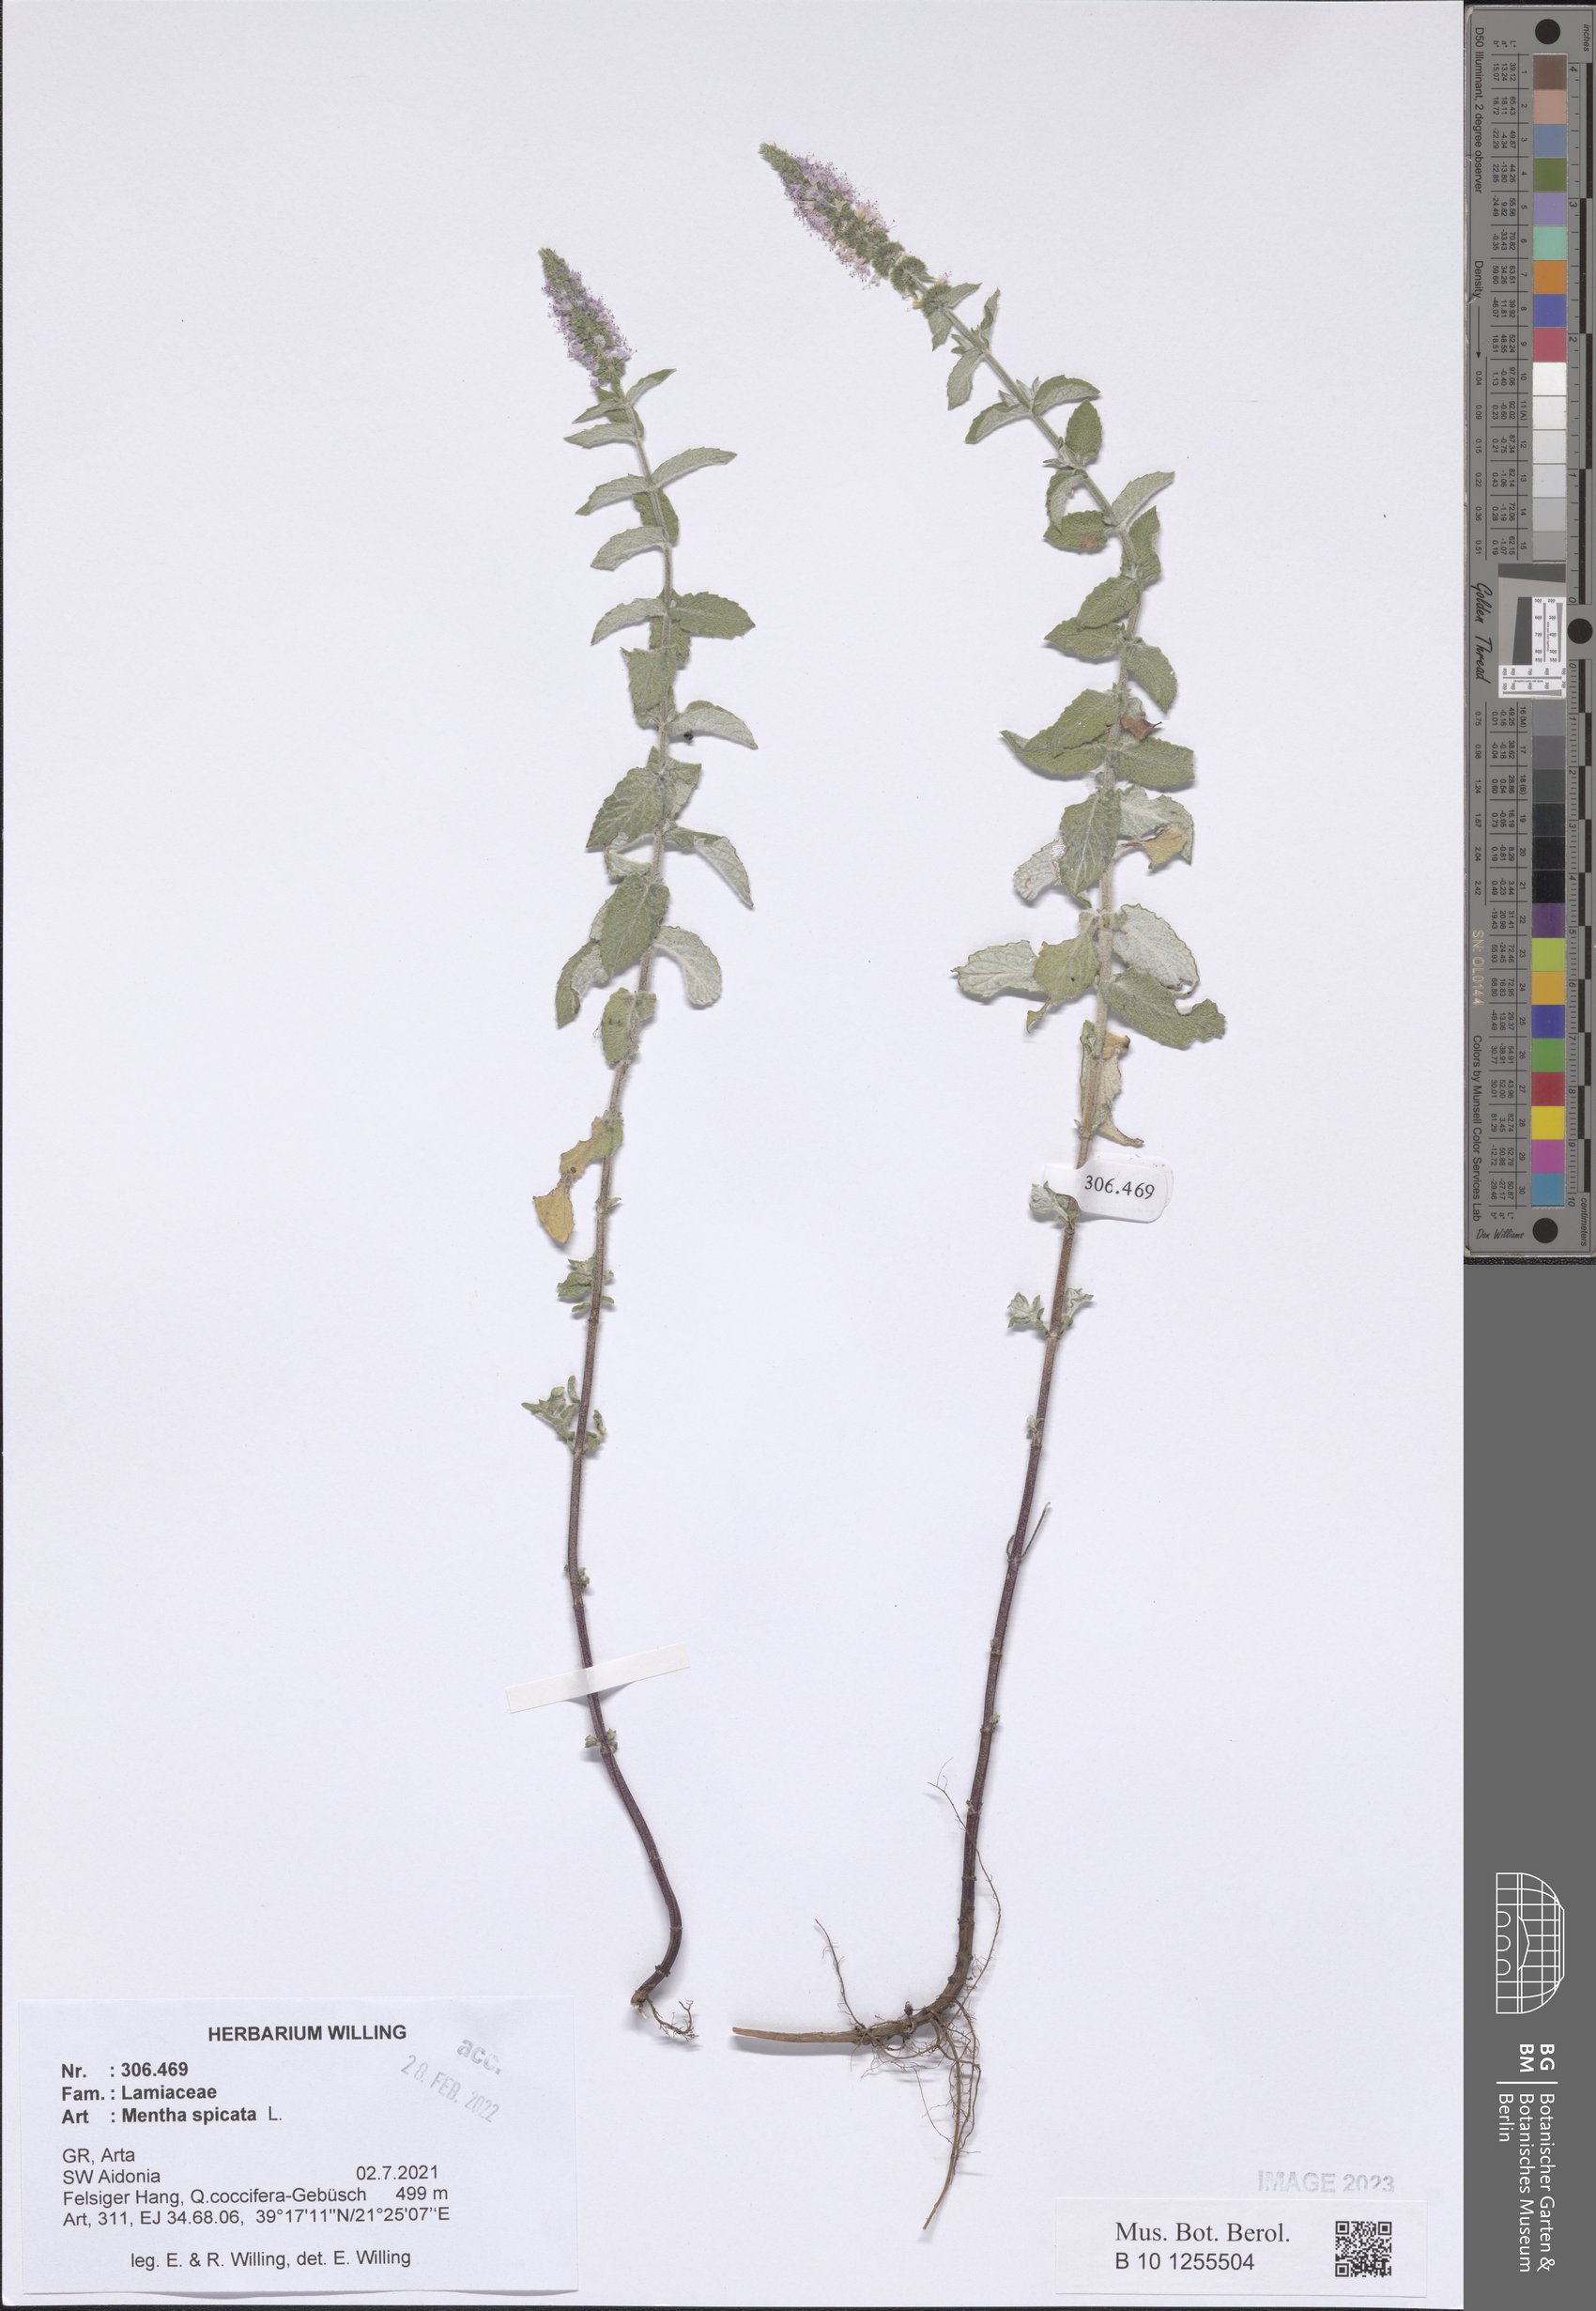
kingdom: Plantae
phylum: Tracheophyta
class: Magnoliopsida
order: Lamiales
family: Lamiaceae
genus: Mentha
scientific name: Mentha spicata
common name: Spearmint
